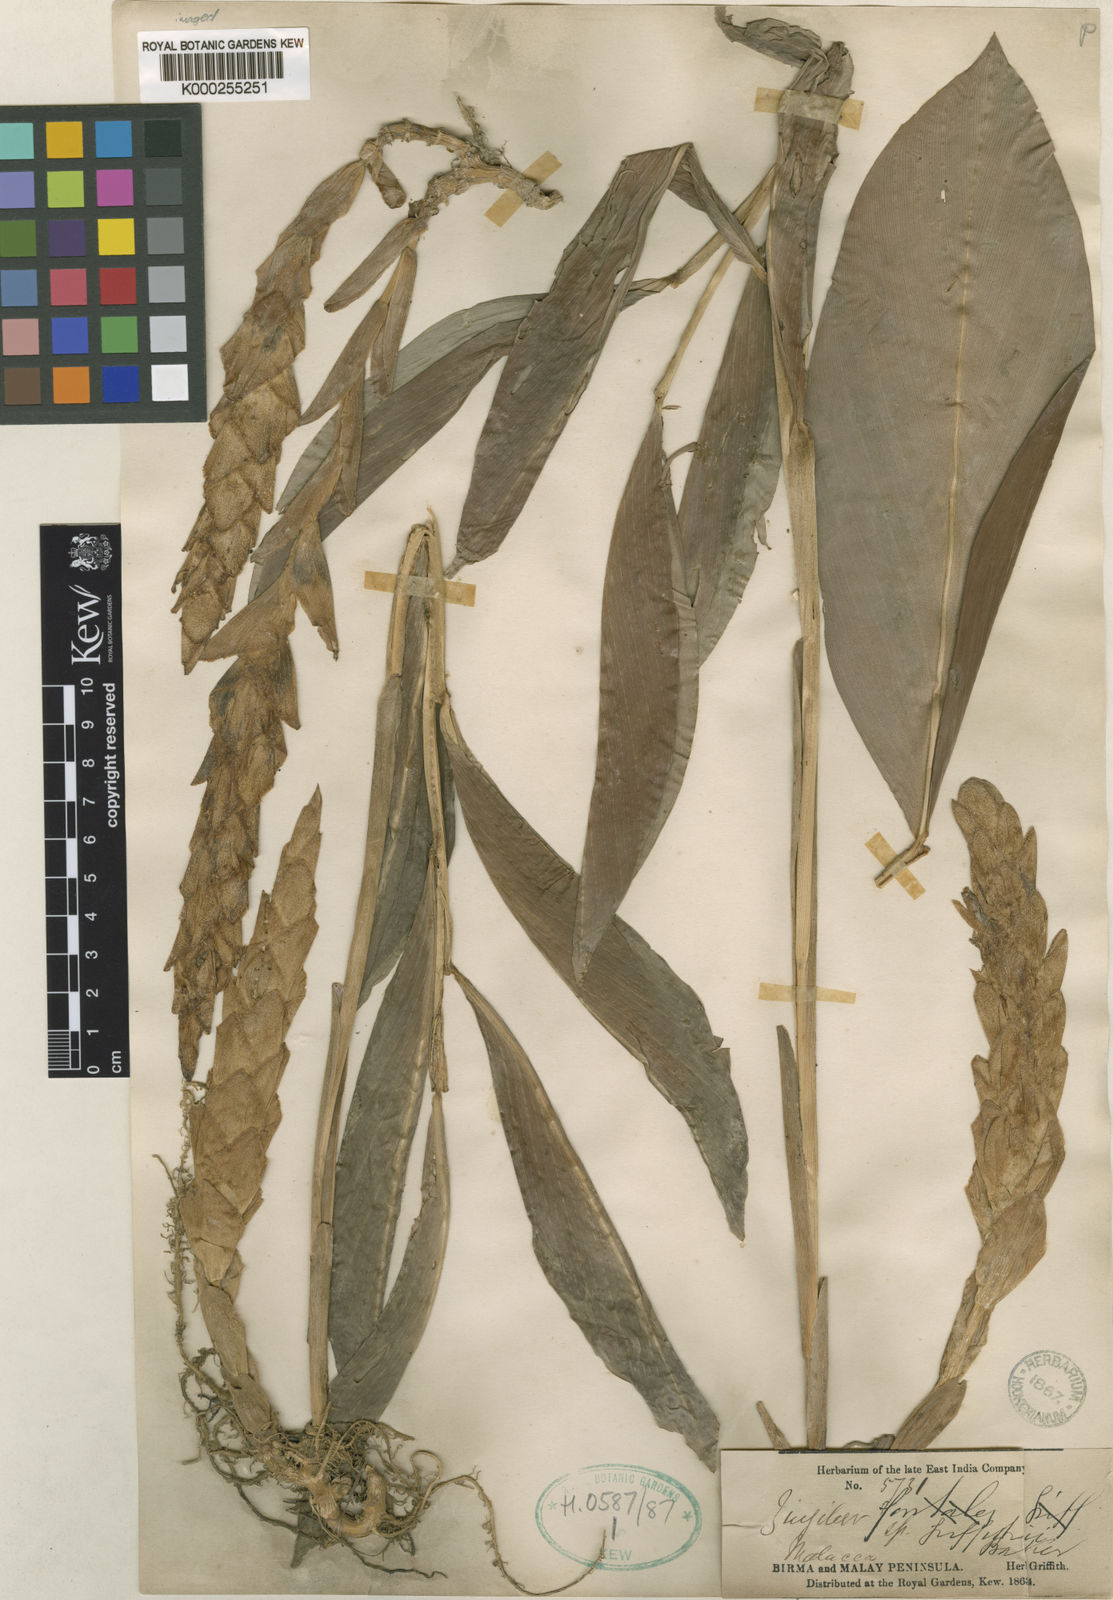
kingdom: Plantae
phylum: Tracheophyta
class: Liliopsida
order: Zingiberales
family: Zingiberaceae
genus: Zingiber
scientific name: Zingiber griffithii
